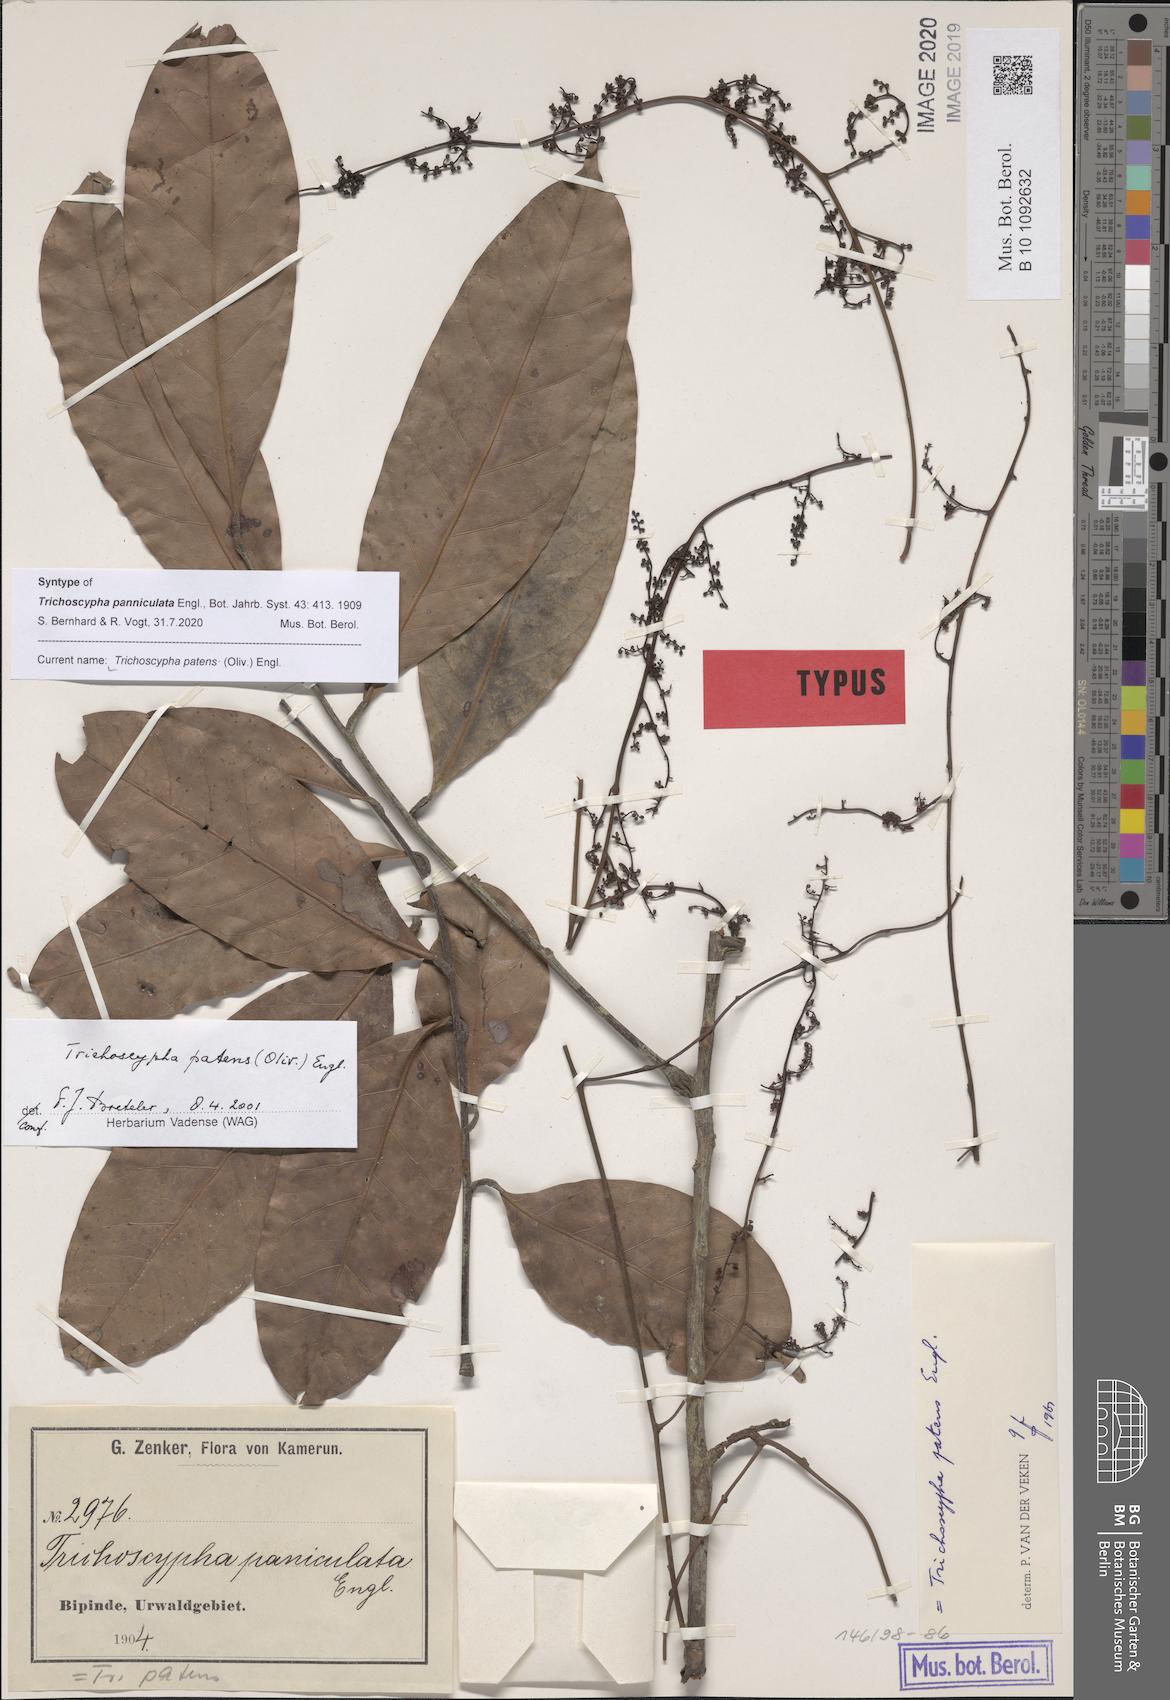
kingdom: Plantae
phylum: Tracheophyta
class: Magnoliopsida
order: Sapindales
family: Anacardiaceae
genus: Trichoscypha
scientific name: Trichoscypha patens
